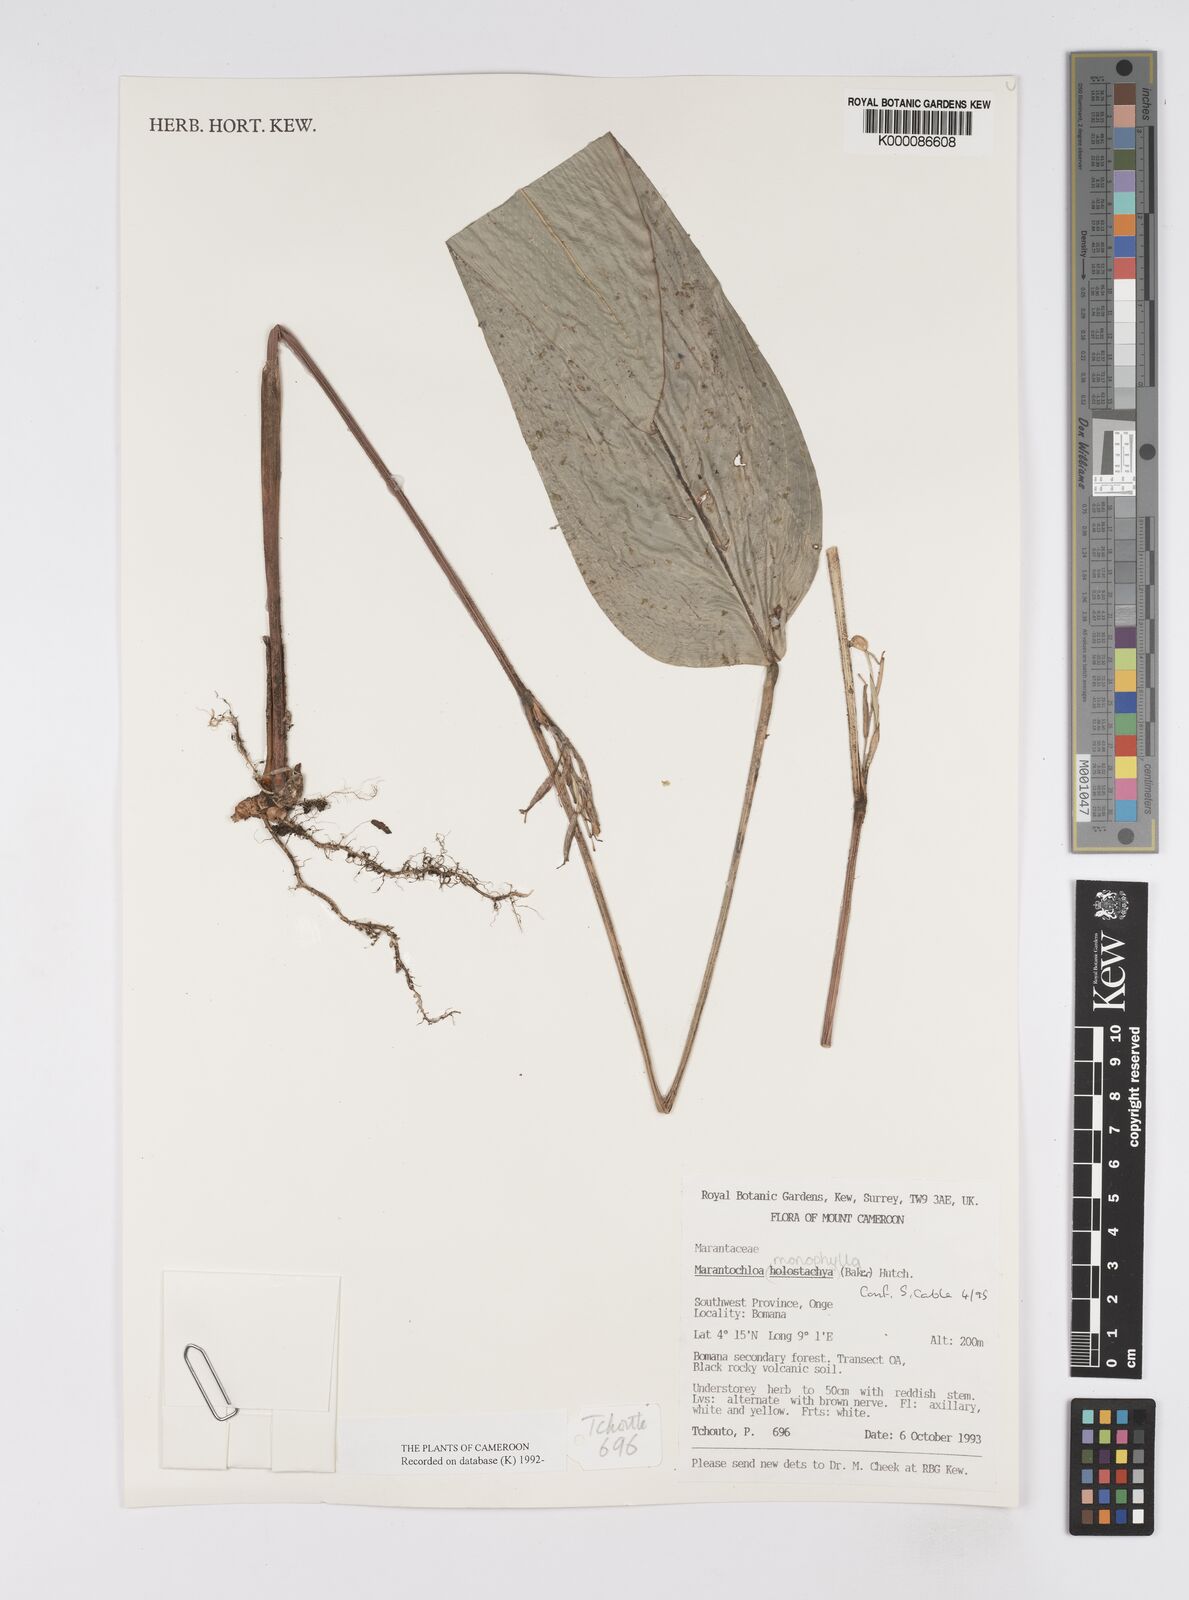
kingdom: Plantae
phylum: Tracheophyta
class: Liliopsida
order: Zingiberales
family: Marantaceae
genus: Marantochloa
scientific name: Marantochloa monophylla
